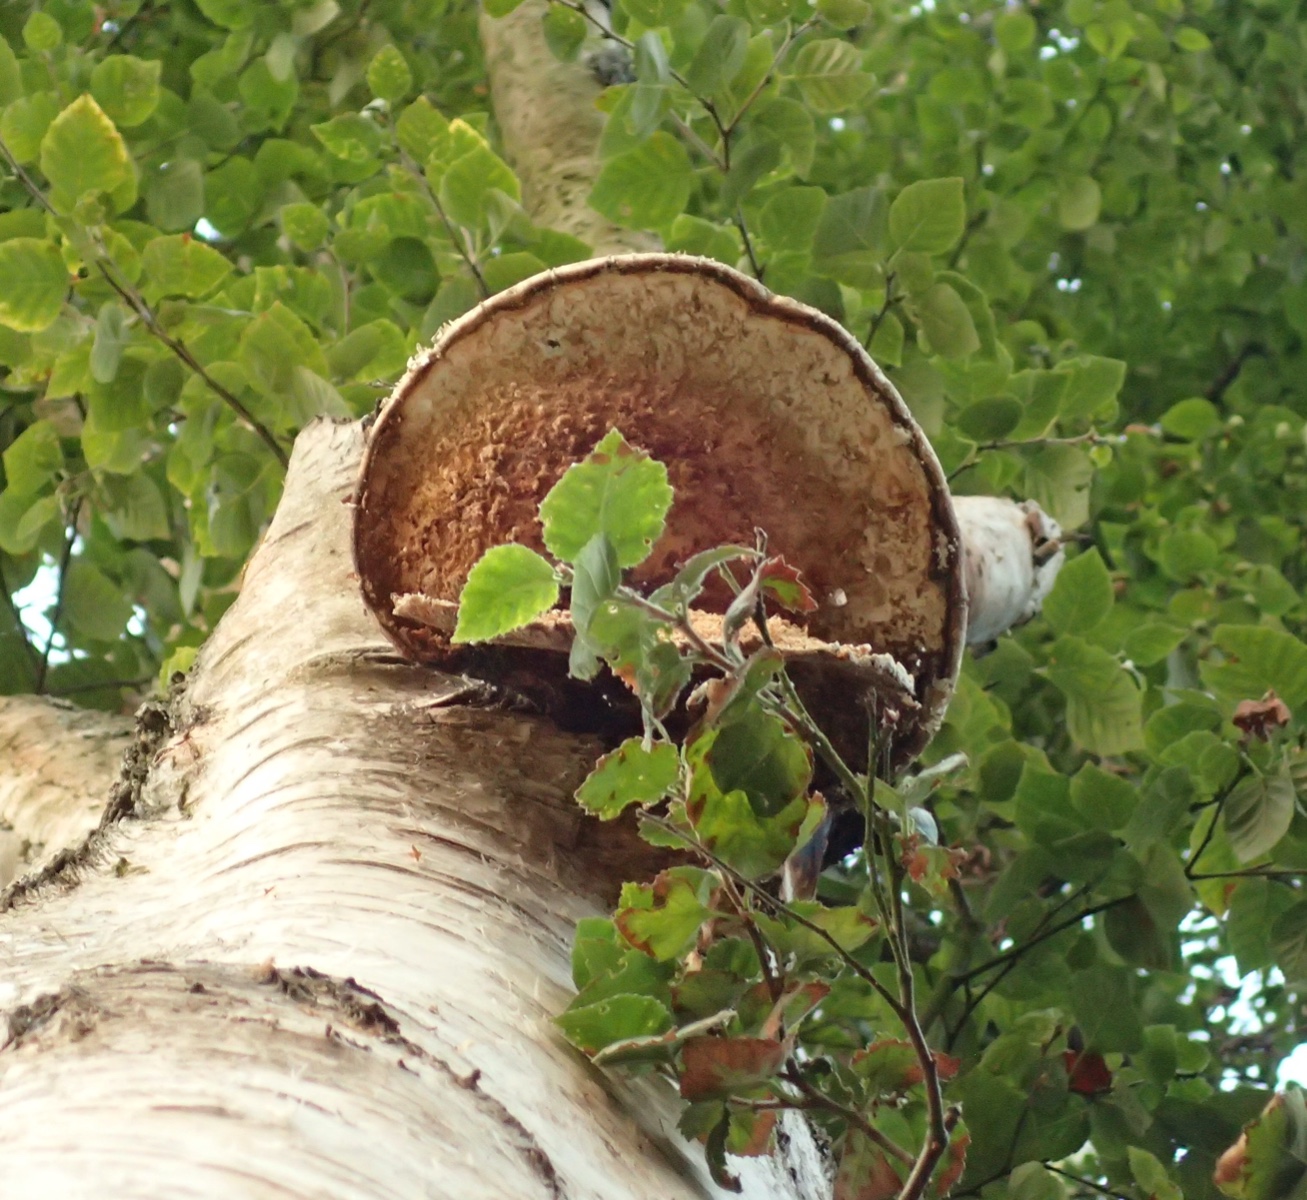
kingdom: Fungi
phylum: Basidiomycota
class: Agaricomycetes
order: Polyporales
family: Fomitopsidaceae
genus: Fomitopsis
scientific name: Fomitopsis betulina
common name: birkeporesvamp
